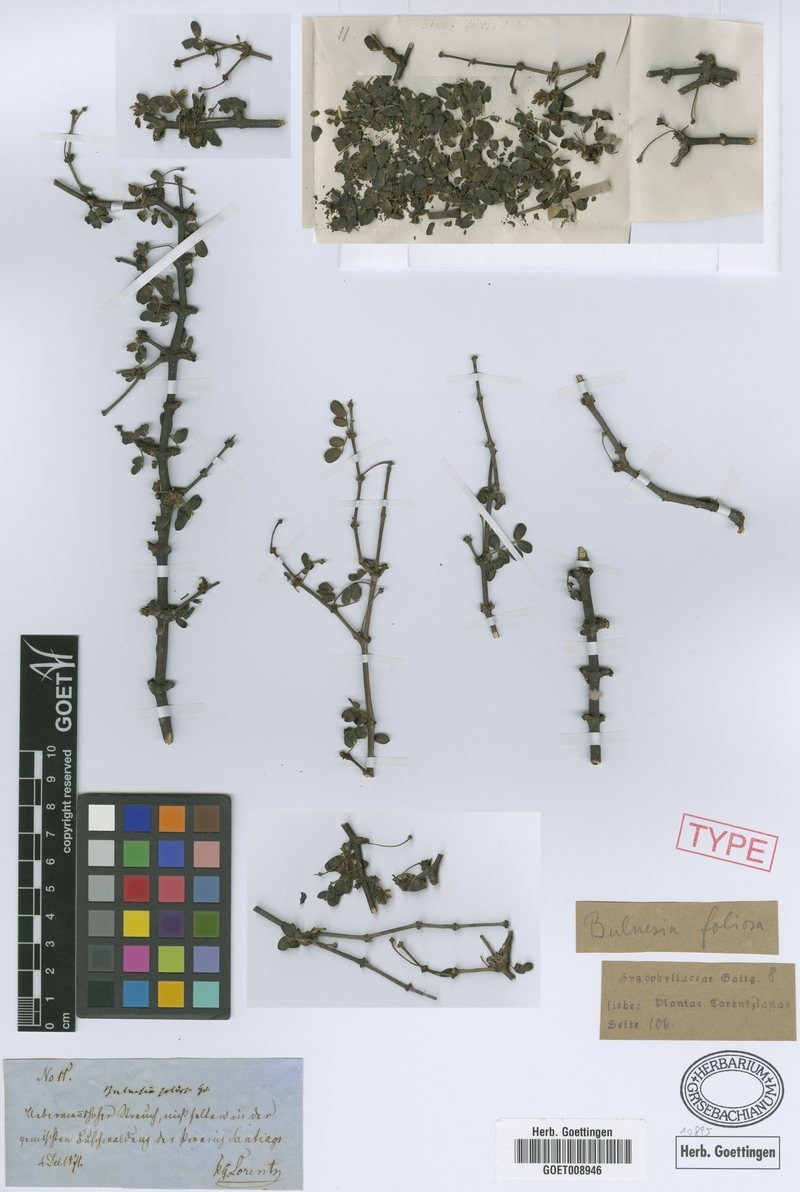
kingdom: Plantae
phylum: Tracheophyta
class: Magnoliopsida
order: Zygophyllales
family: Zygophyllaceae
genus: Bulnesia
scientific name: Bulnesia foliosa
